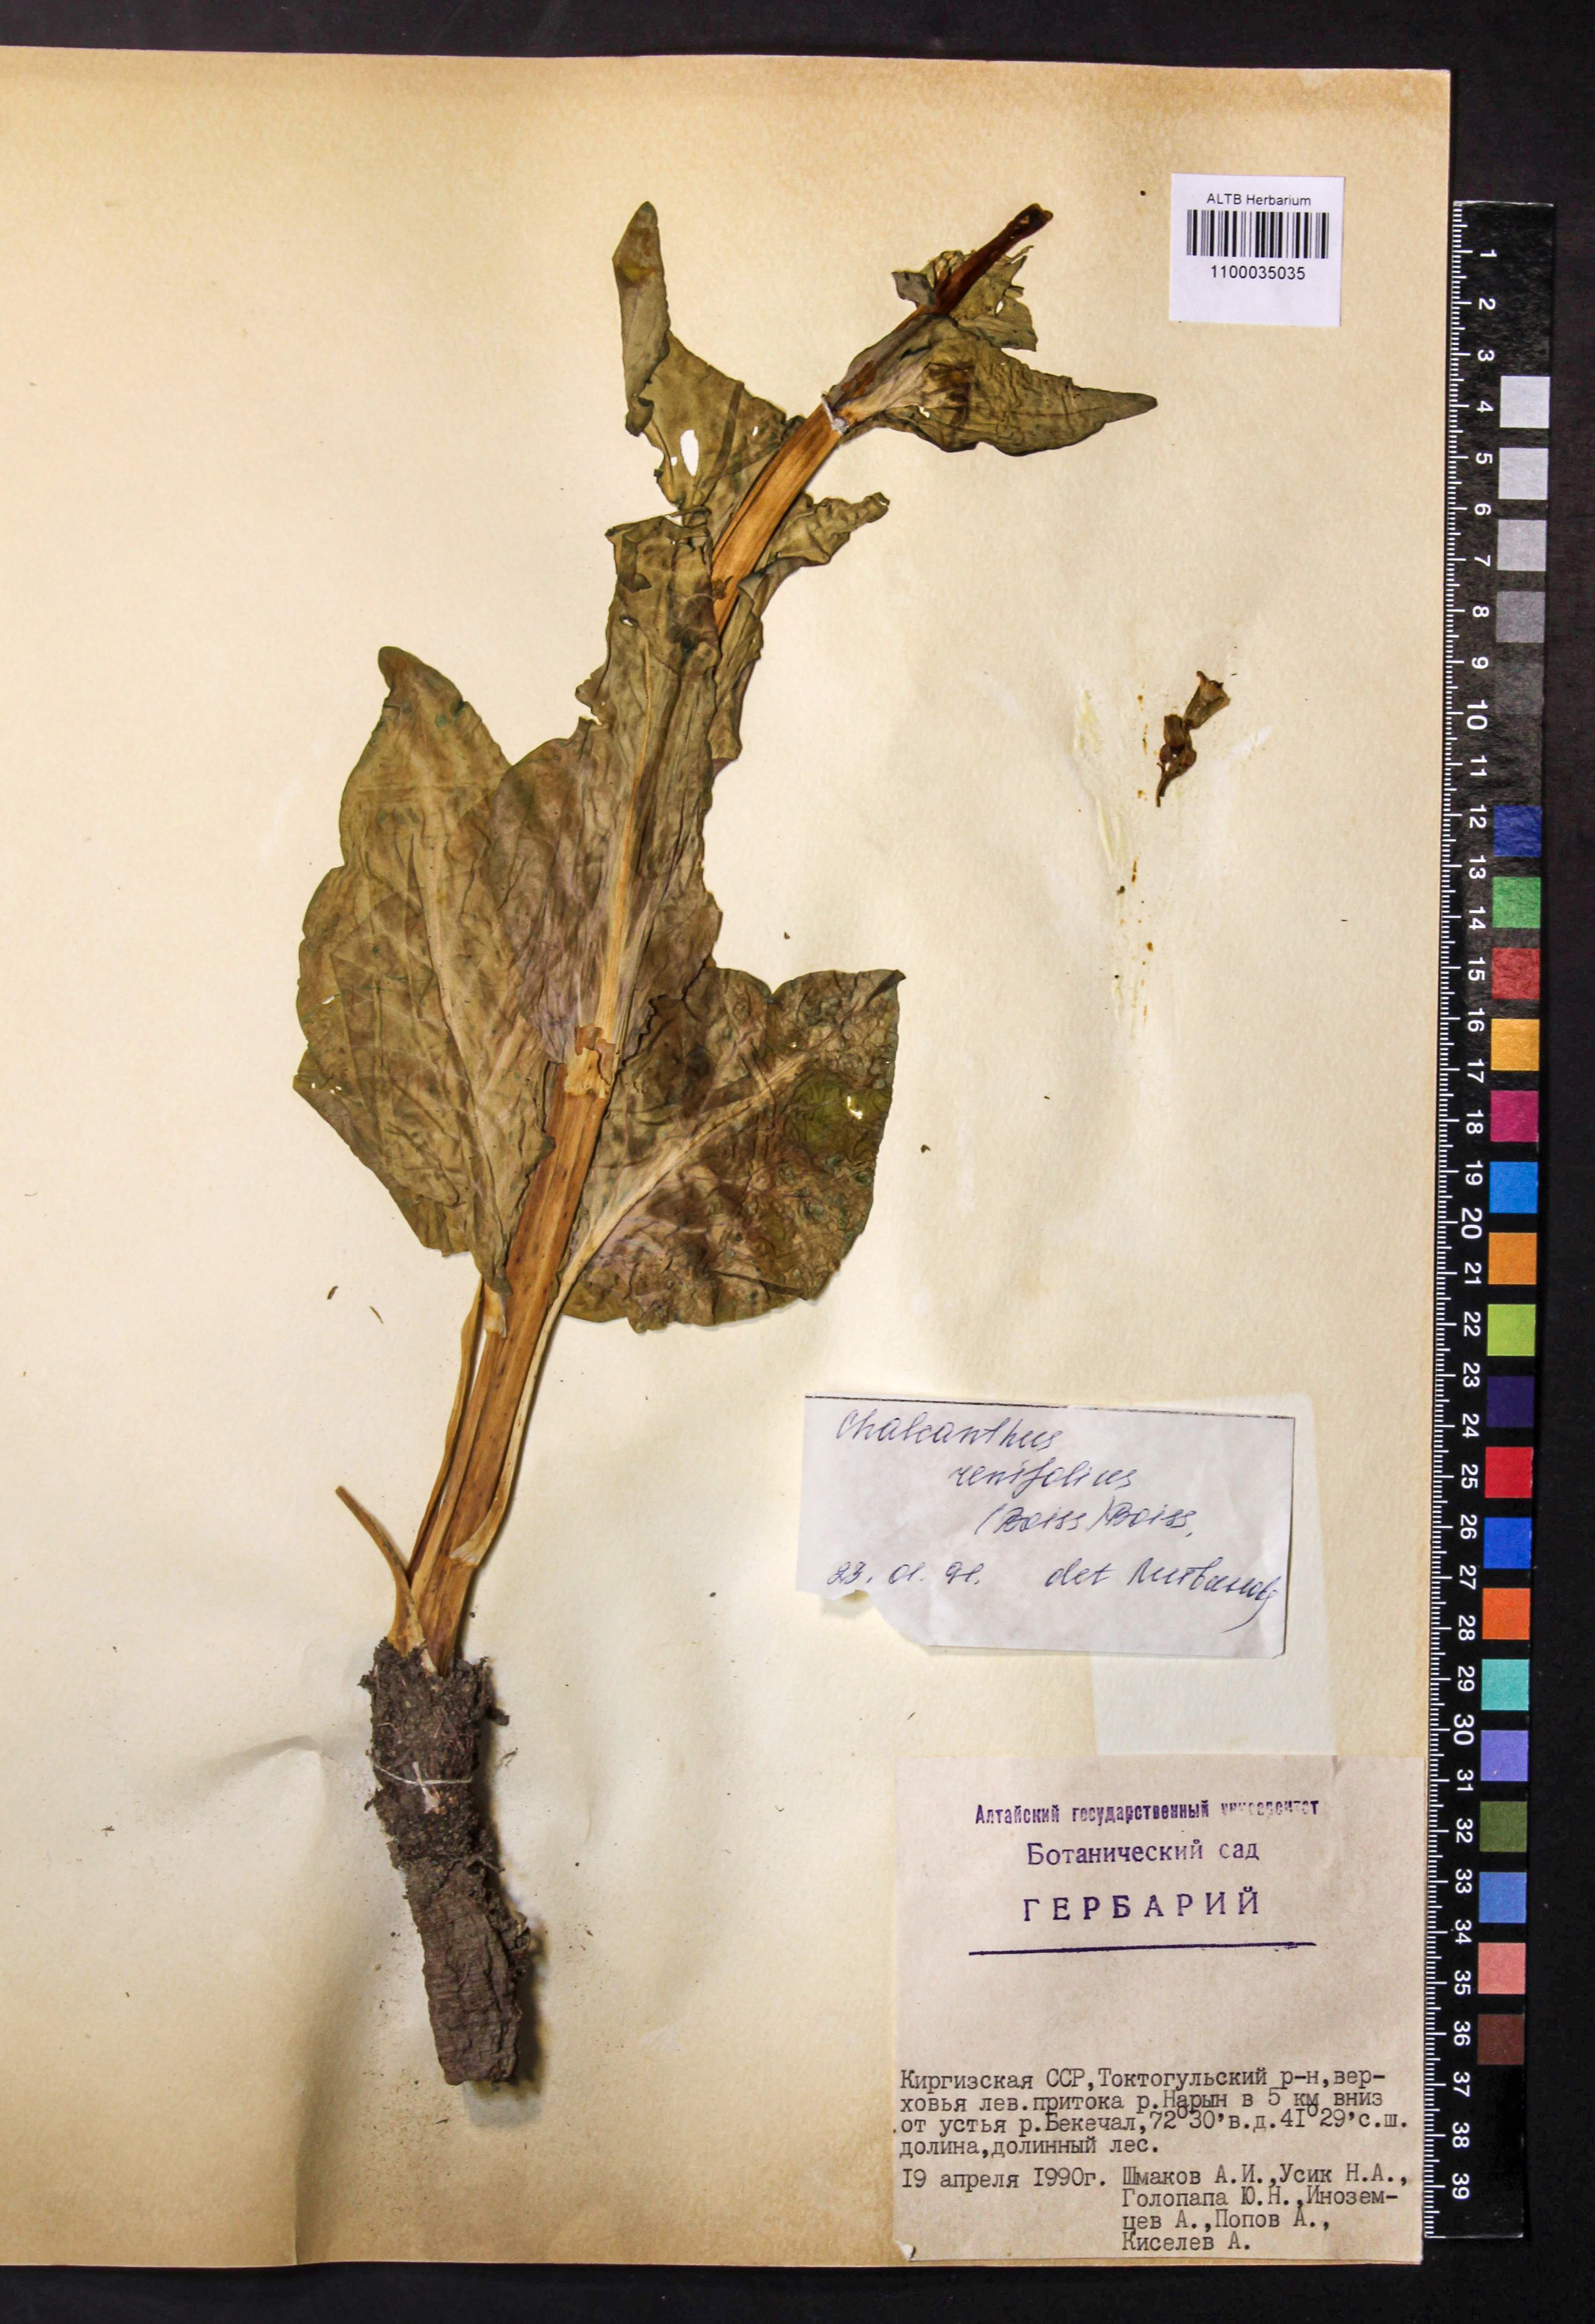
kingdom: Plantae
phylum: Tracheophyta
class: Magnoliopsida
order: Brassicales
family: Brassicaceae
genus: Eutrema
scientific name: Eutrema renifolium
